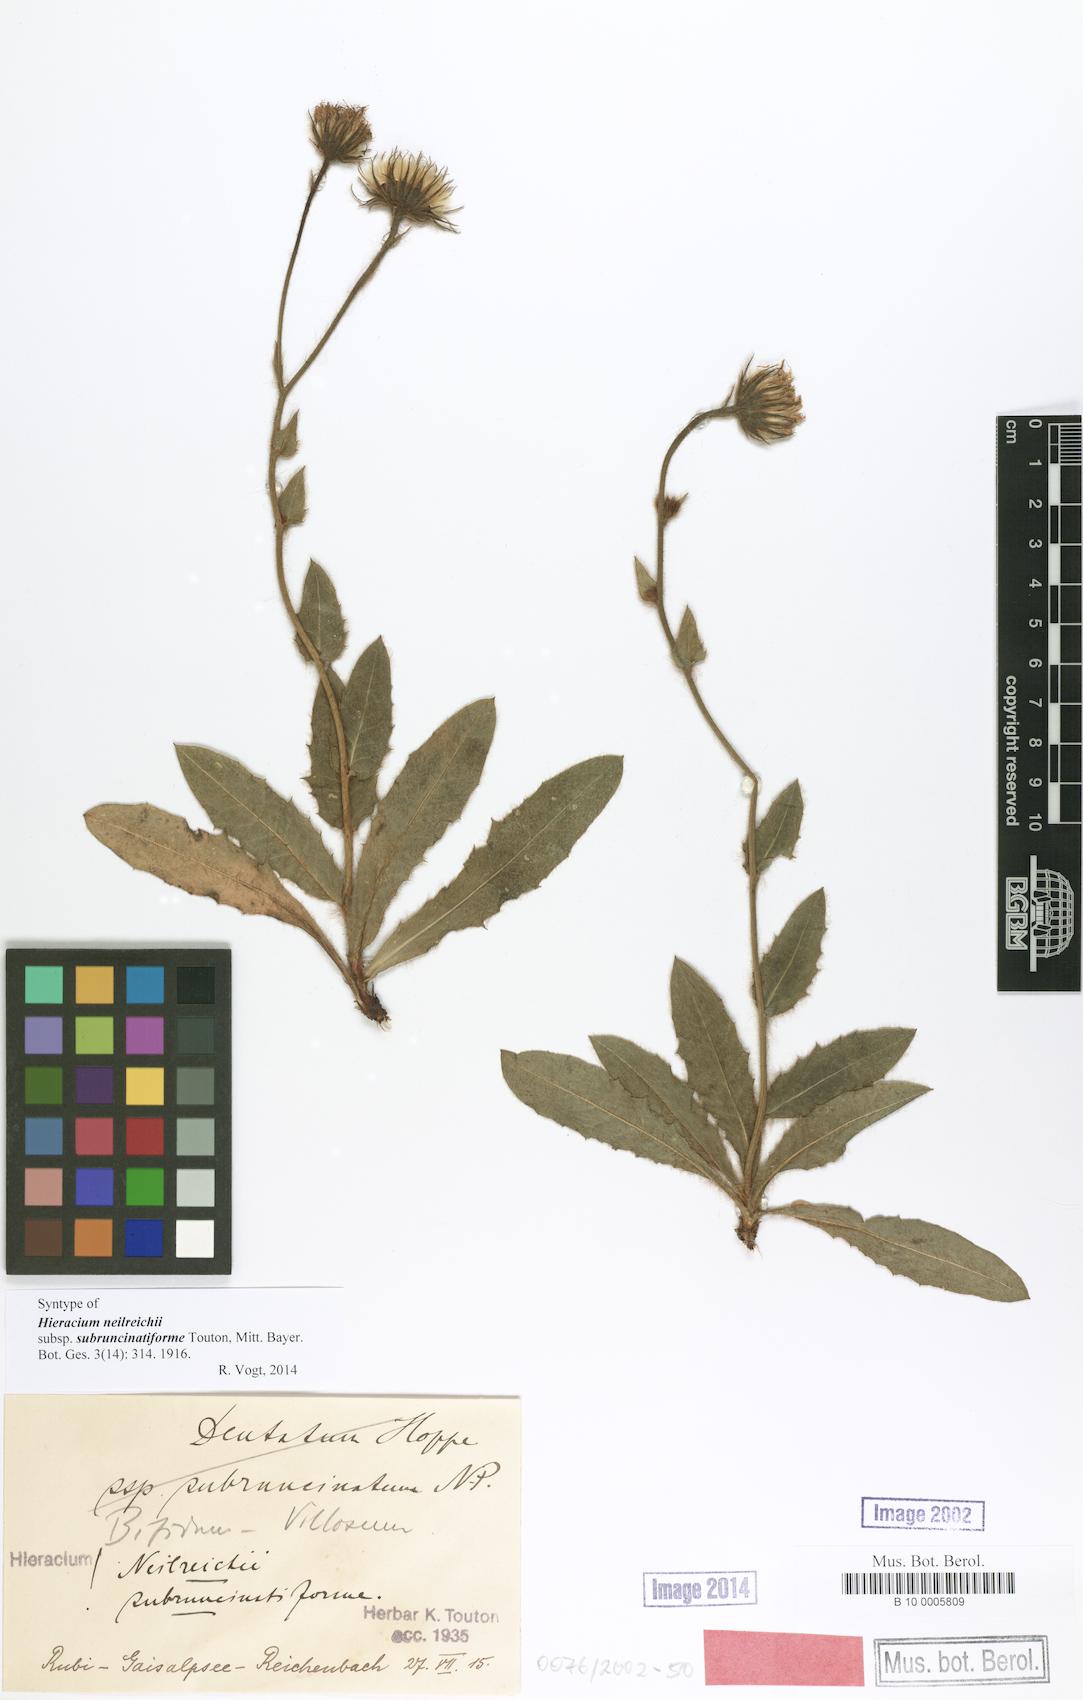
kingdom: Plantae
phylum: Tracheophyta
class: Magnoliopsida
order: Asterales
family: Asteraceae
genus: Hieracium
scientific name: Hieracium benzianum
